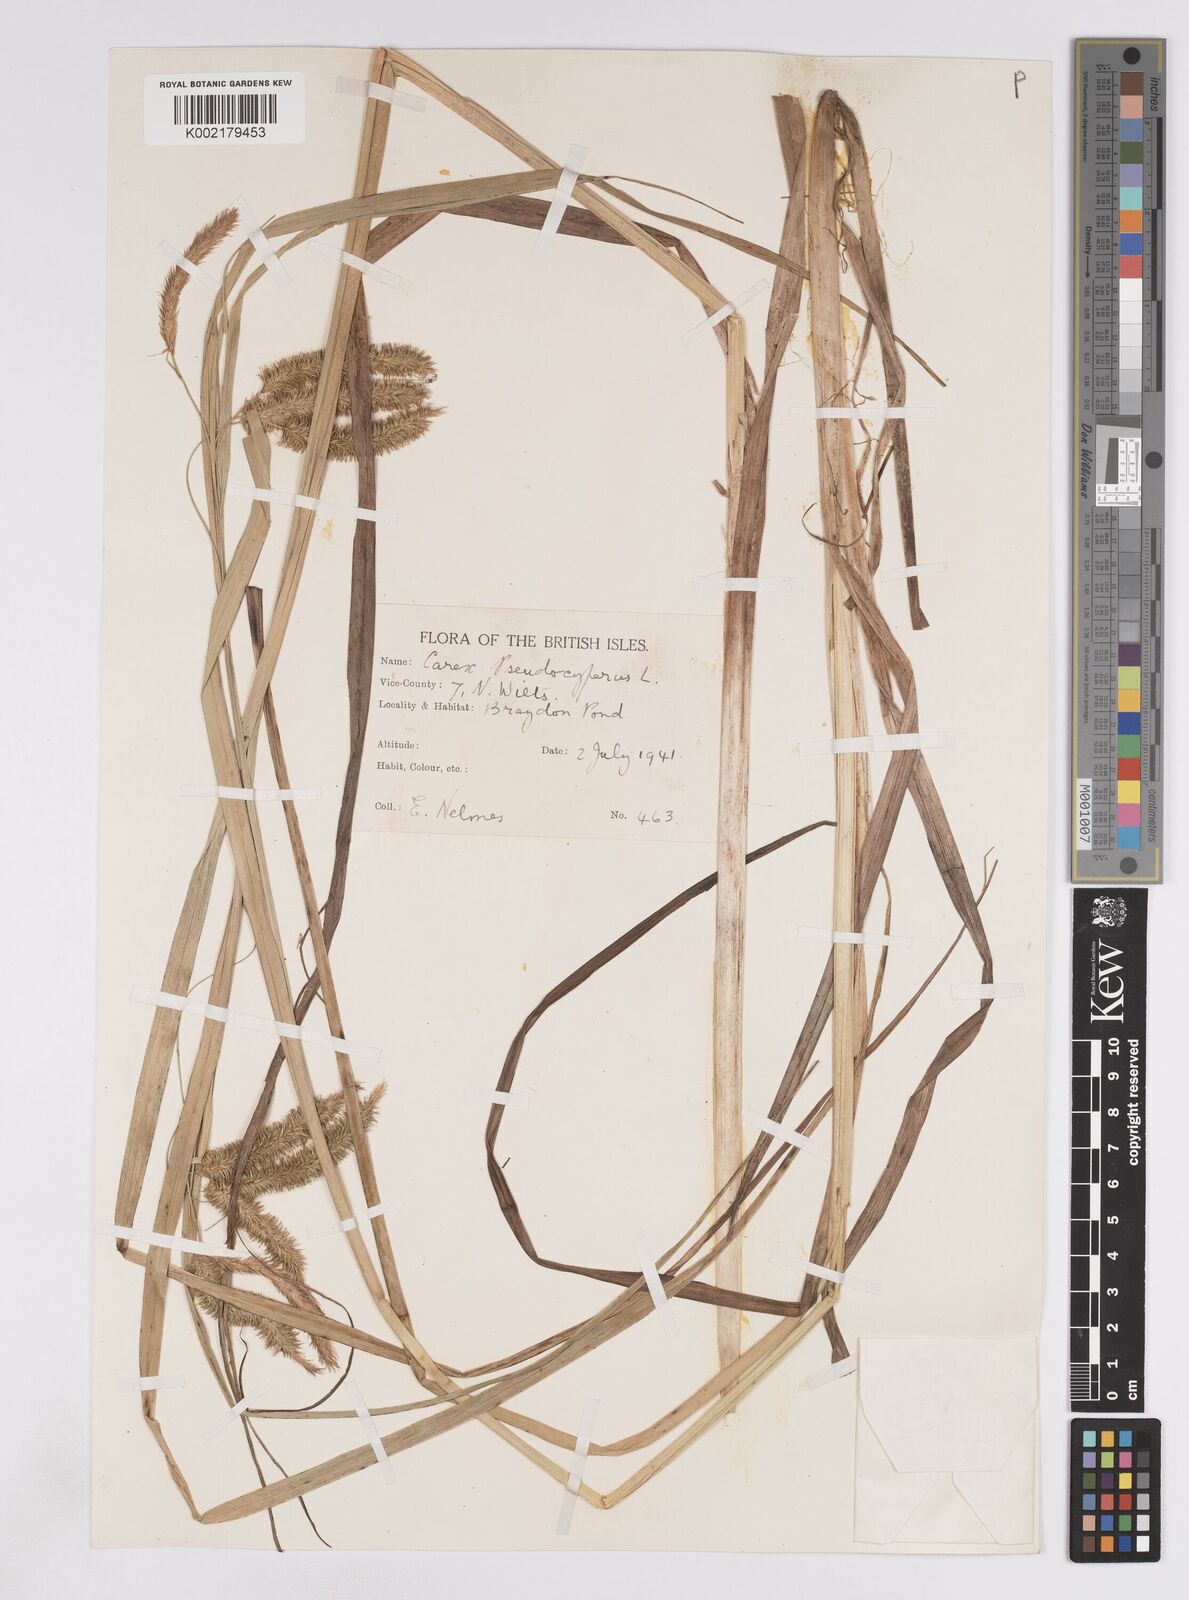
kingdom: Plantae
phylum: Tracheophyta
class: Liliopsida
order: Poales
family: Cyperaceae
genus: Carex
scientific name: Carex pseudocyperus
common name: Cyperus sedge
